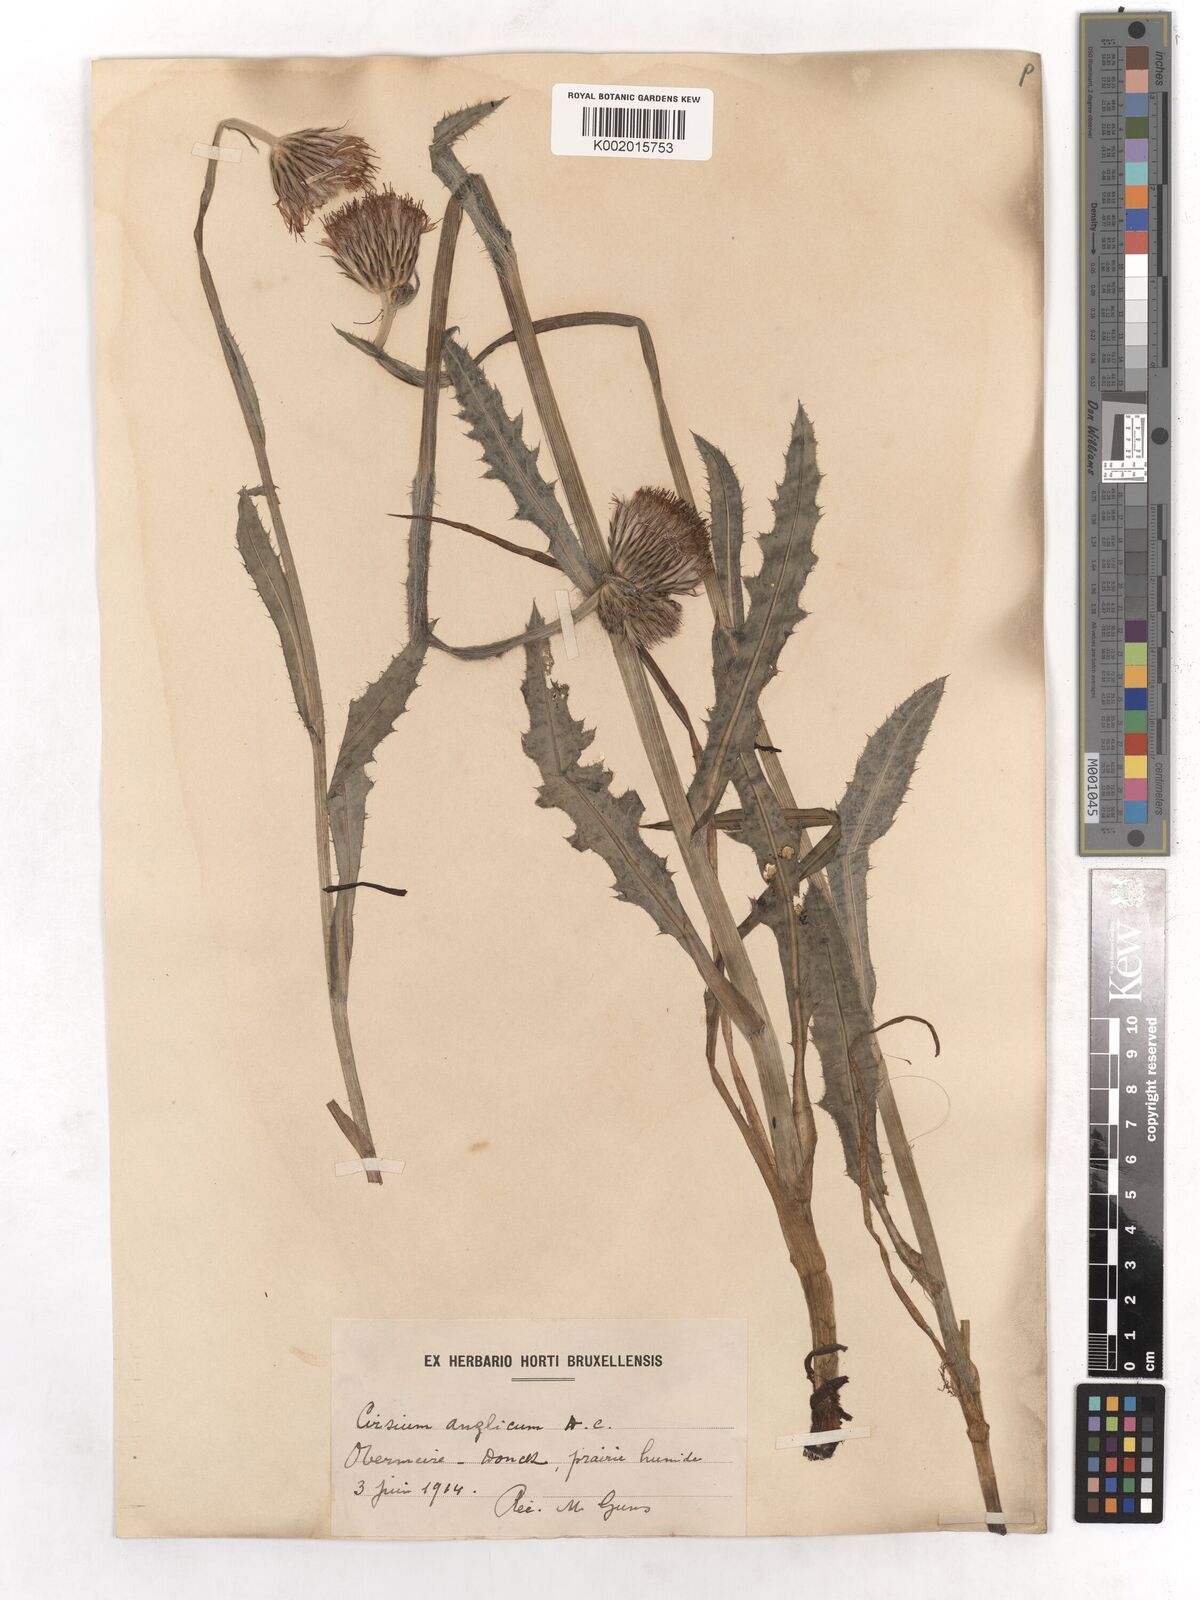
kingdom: Plantae
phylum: Tracheophyta
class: Magnoliopsida
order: Asterales
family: Asteraceae
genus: Cirsium
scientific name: Cirsium dissectum
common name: Meadow thistle
